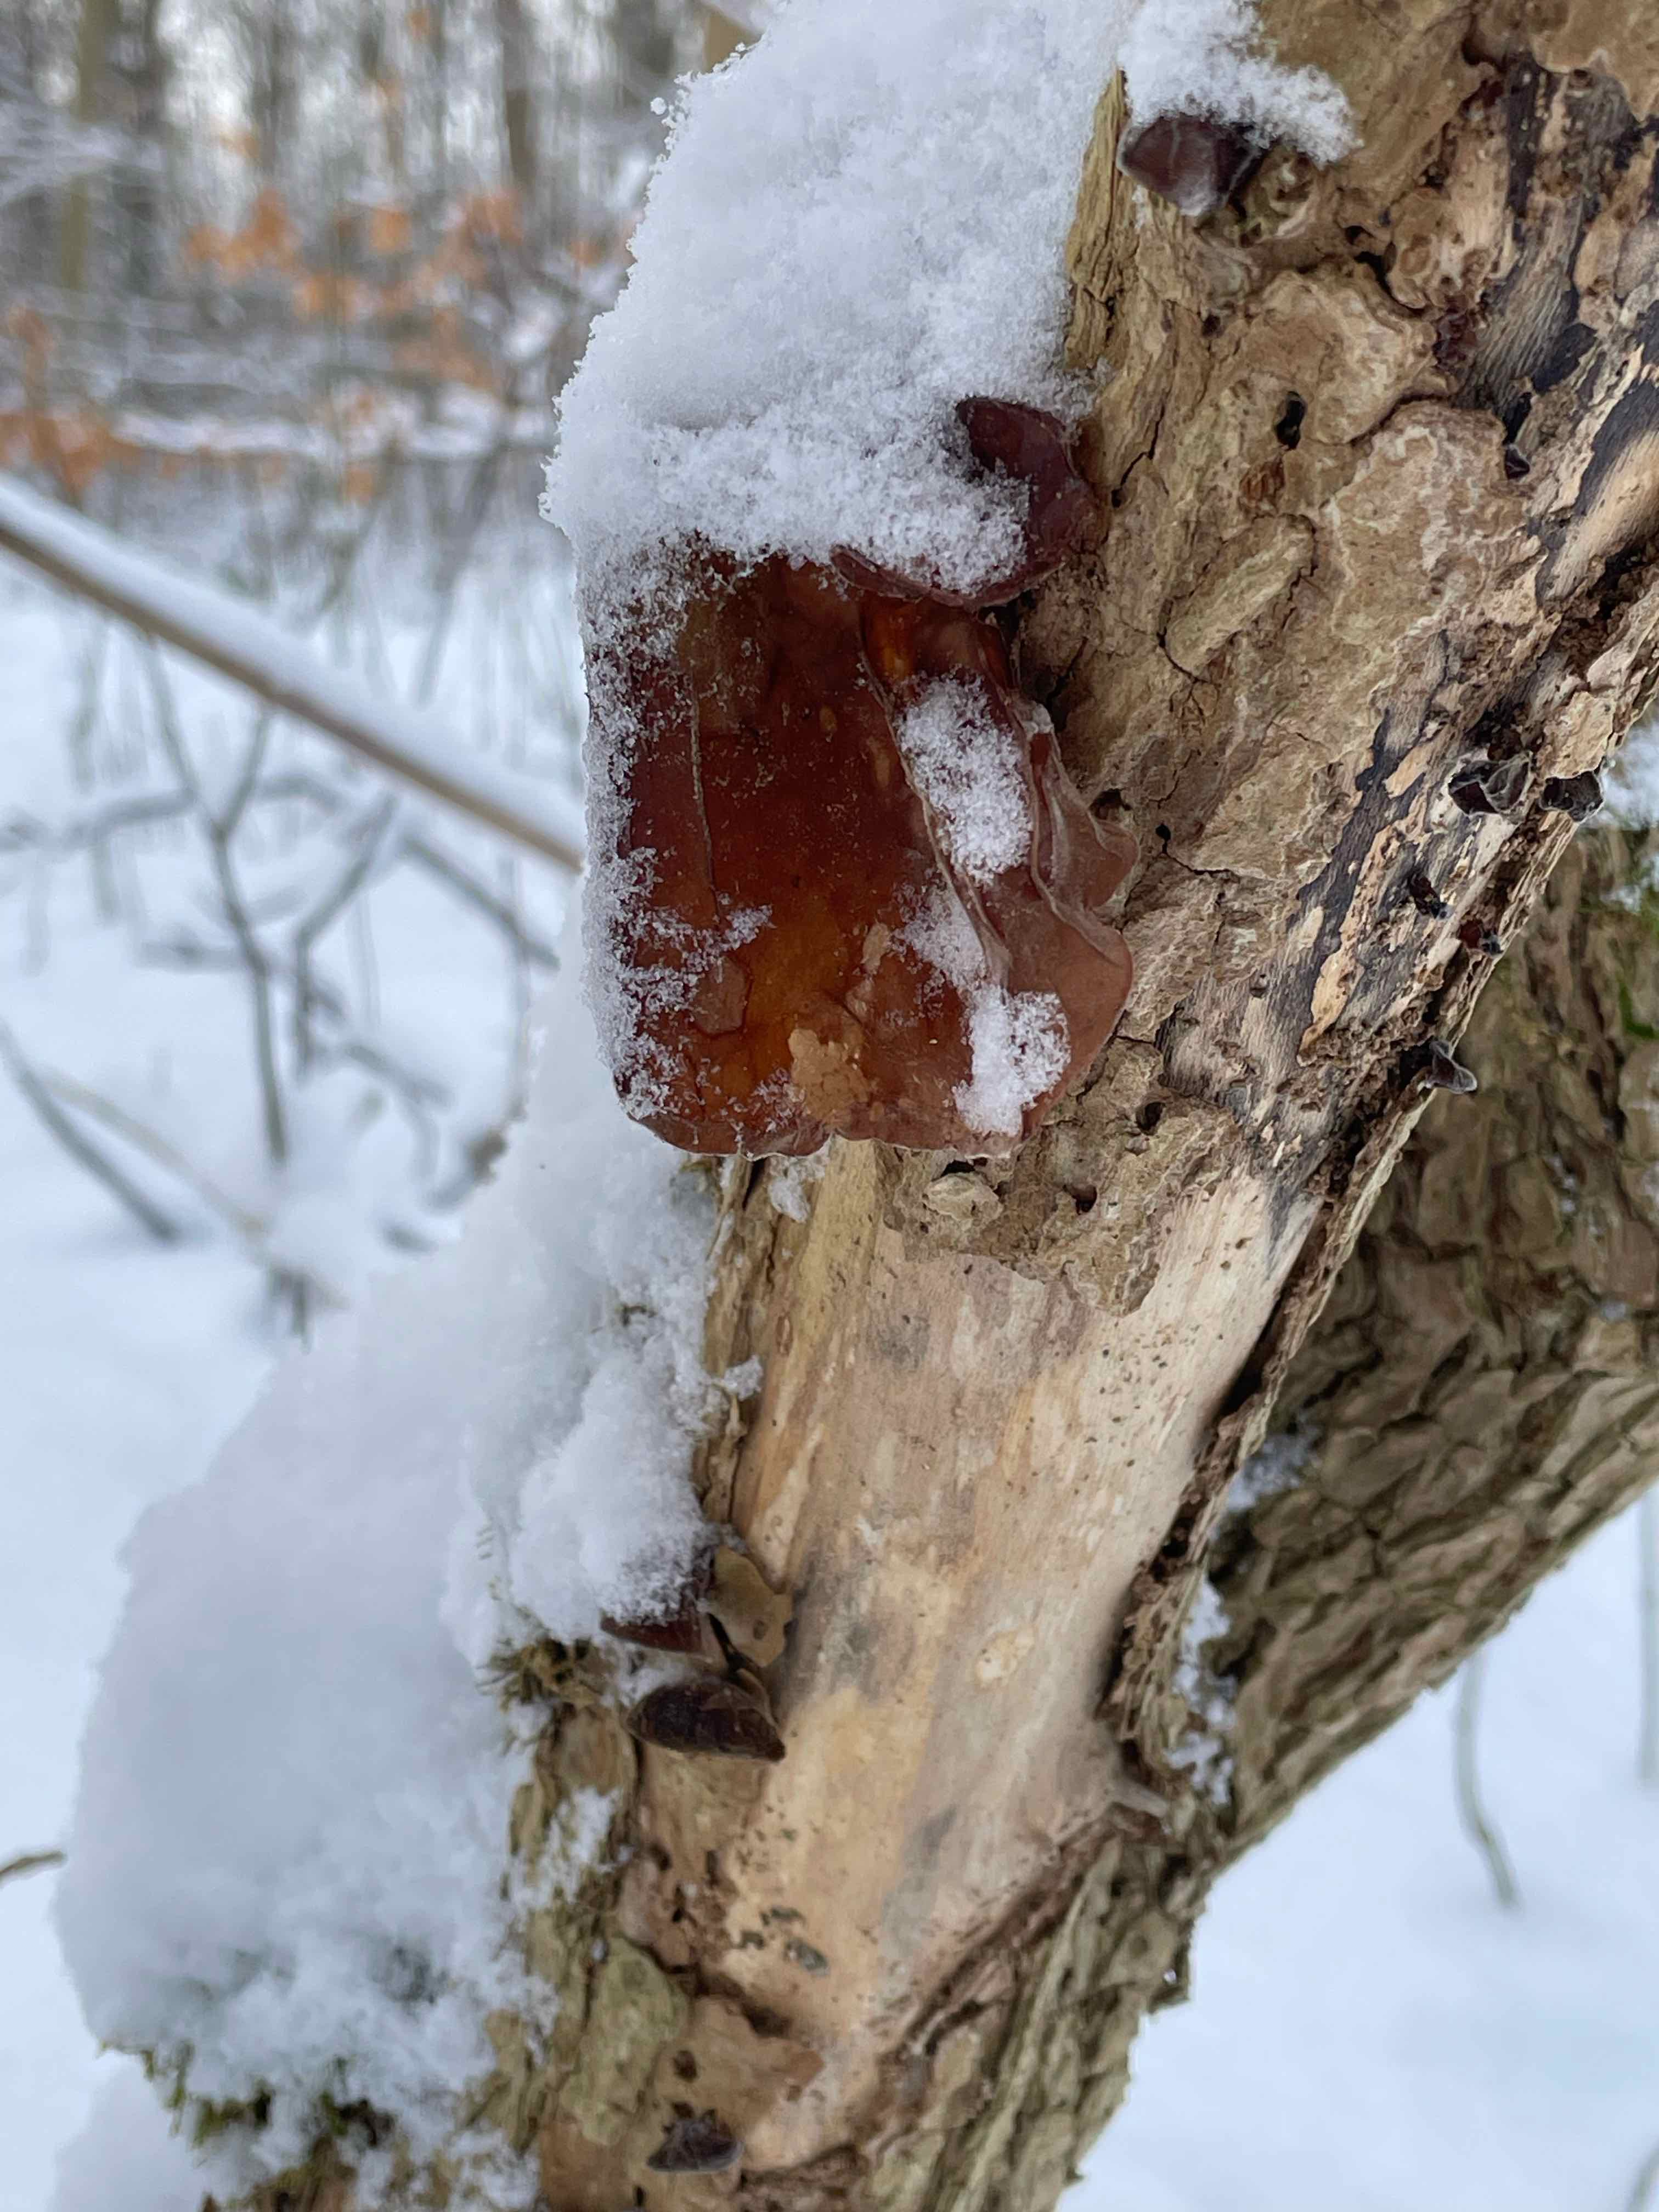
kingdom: Fungi
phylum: Basidiomycota
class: Agaricomycetes
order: Auriculariales
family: Auriculariaceae
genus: Auricularia
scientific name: Auricularia auricula-judae
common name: almindelig judasøre
